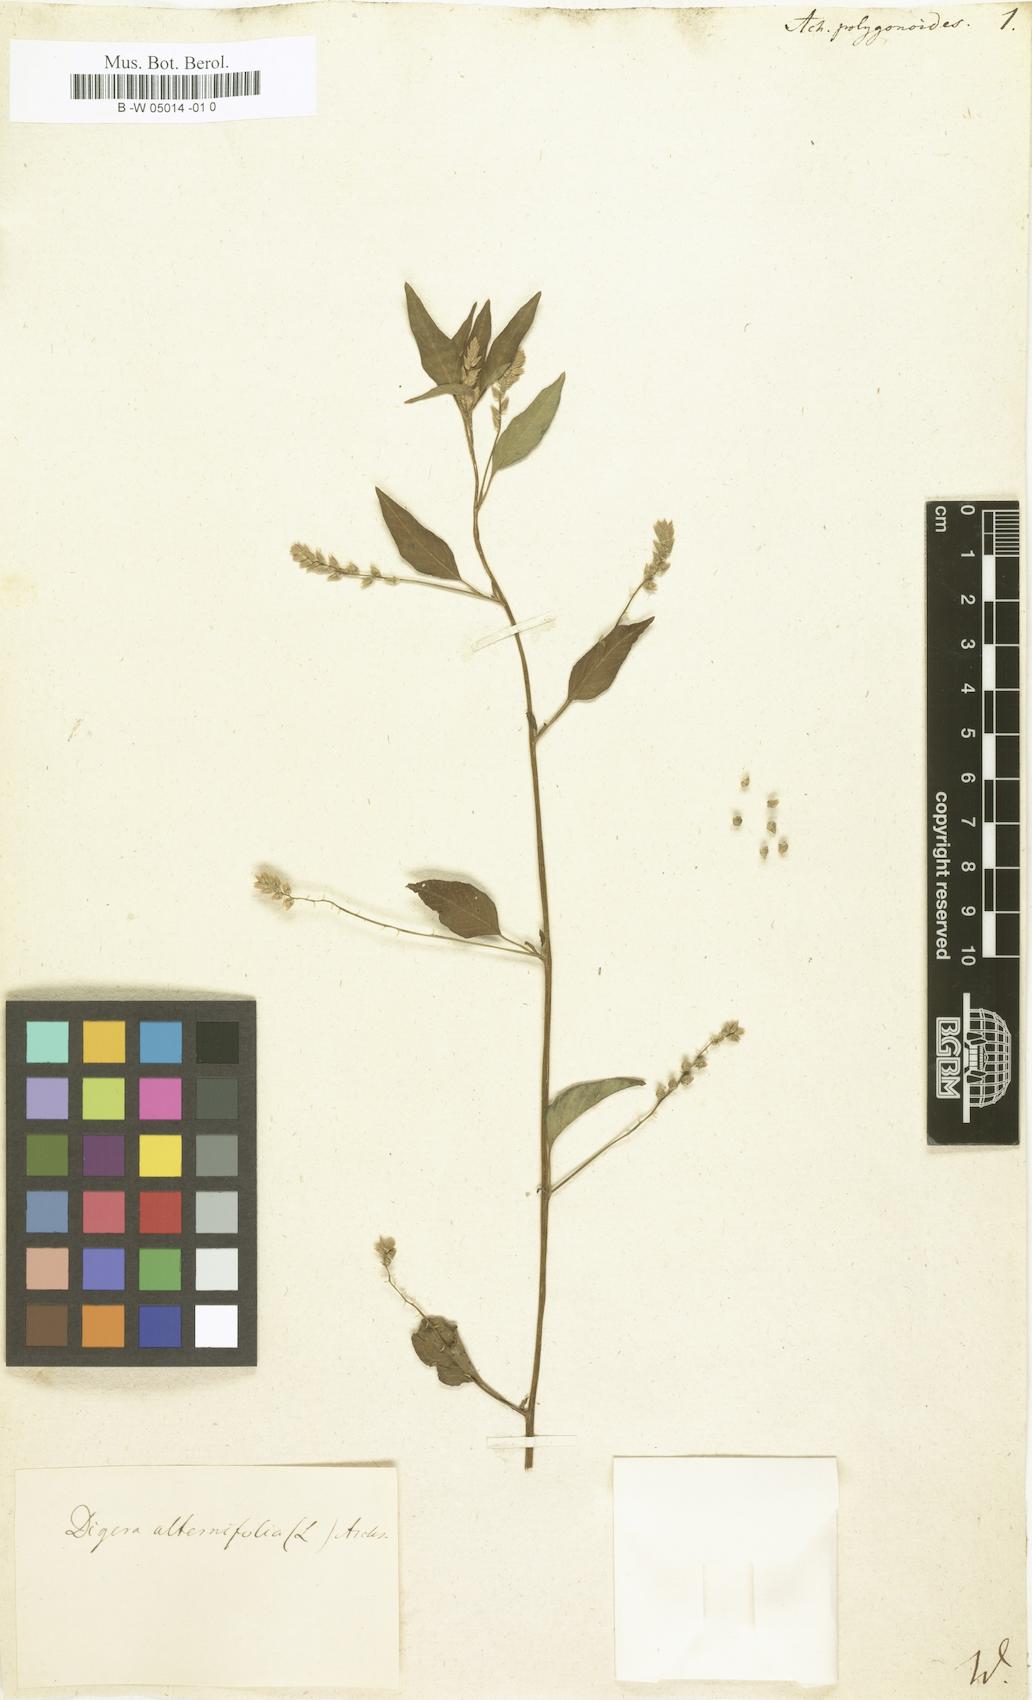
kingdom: Plantae
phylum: Tracheophyta
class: Magnoliopsida
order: Caryophyllales
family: Amaranthaceae
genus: Alternanthera
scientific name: Alternanthera sessilis
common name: Sessile joyweed
